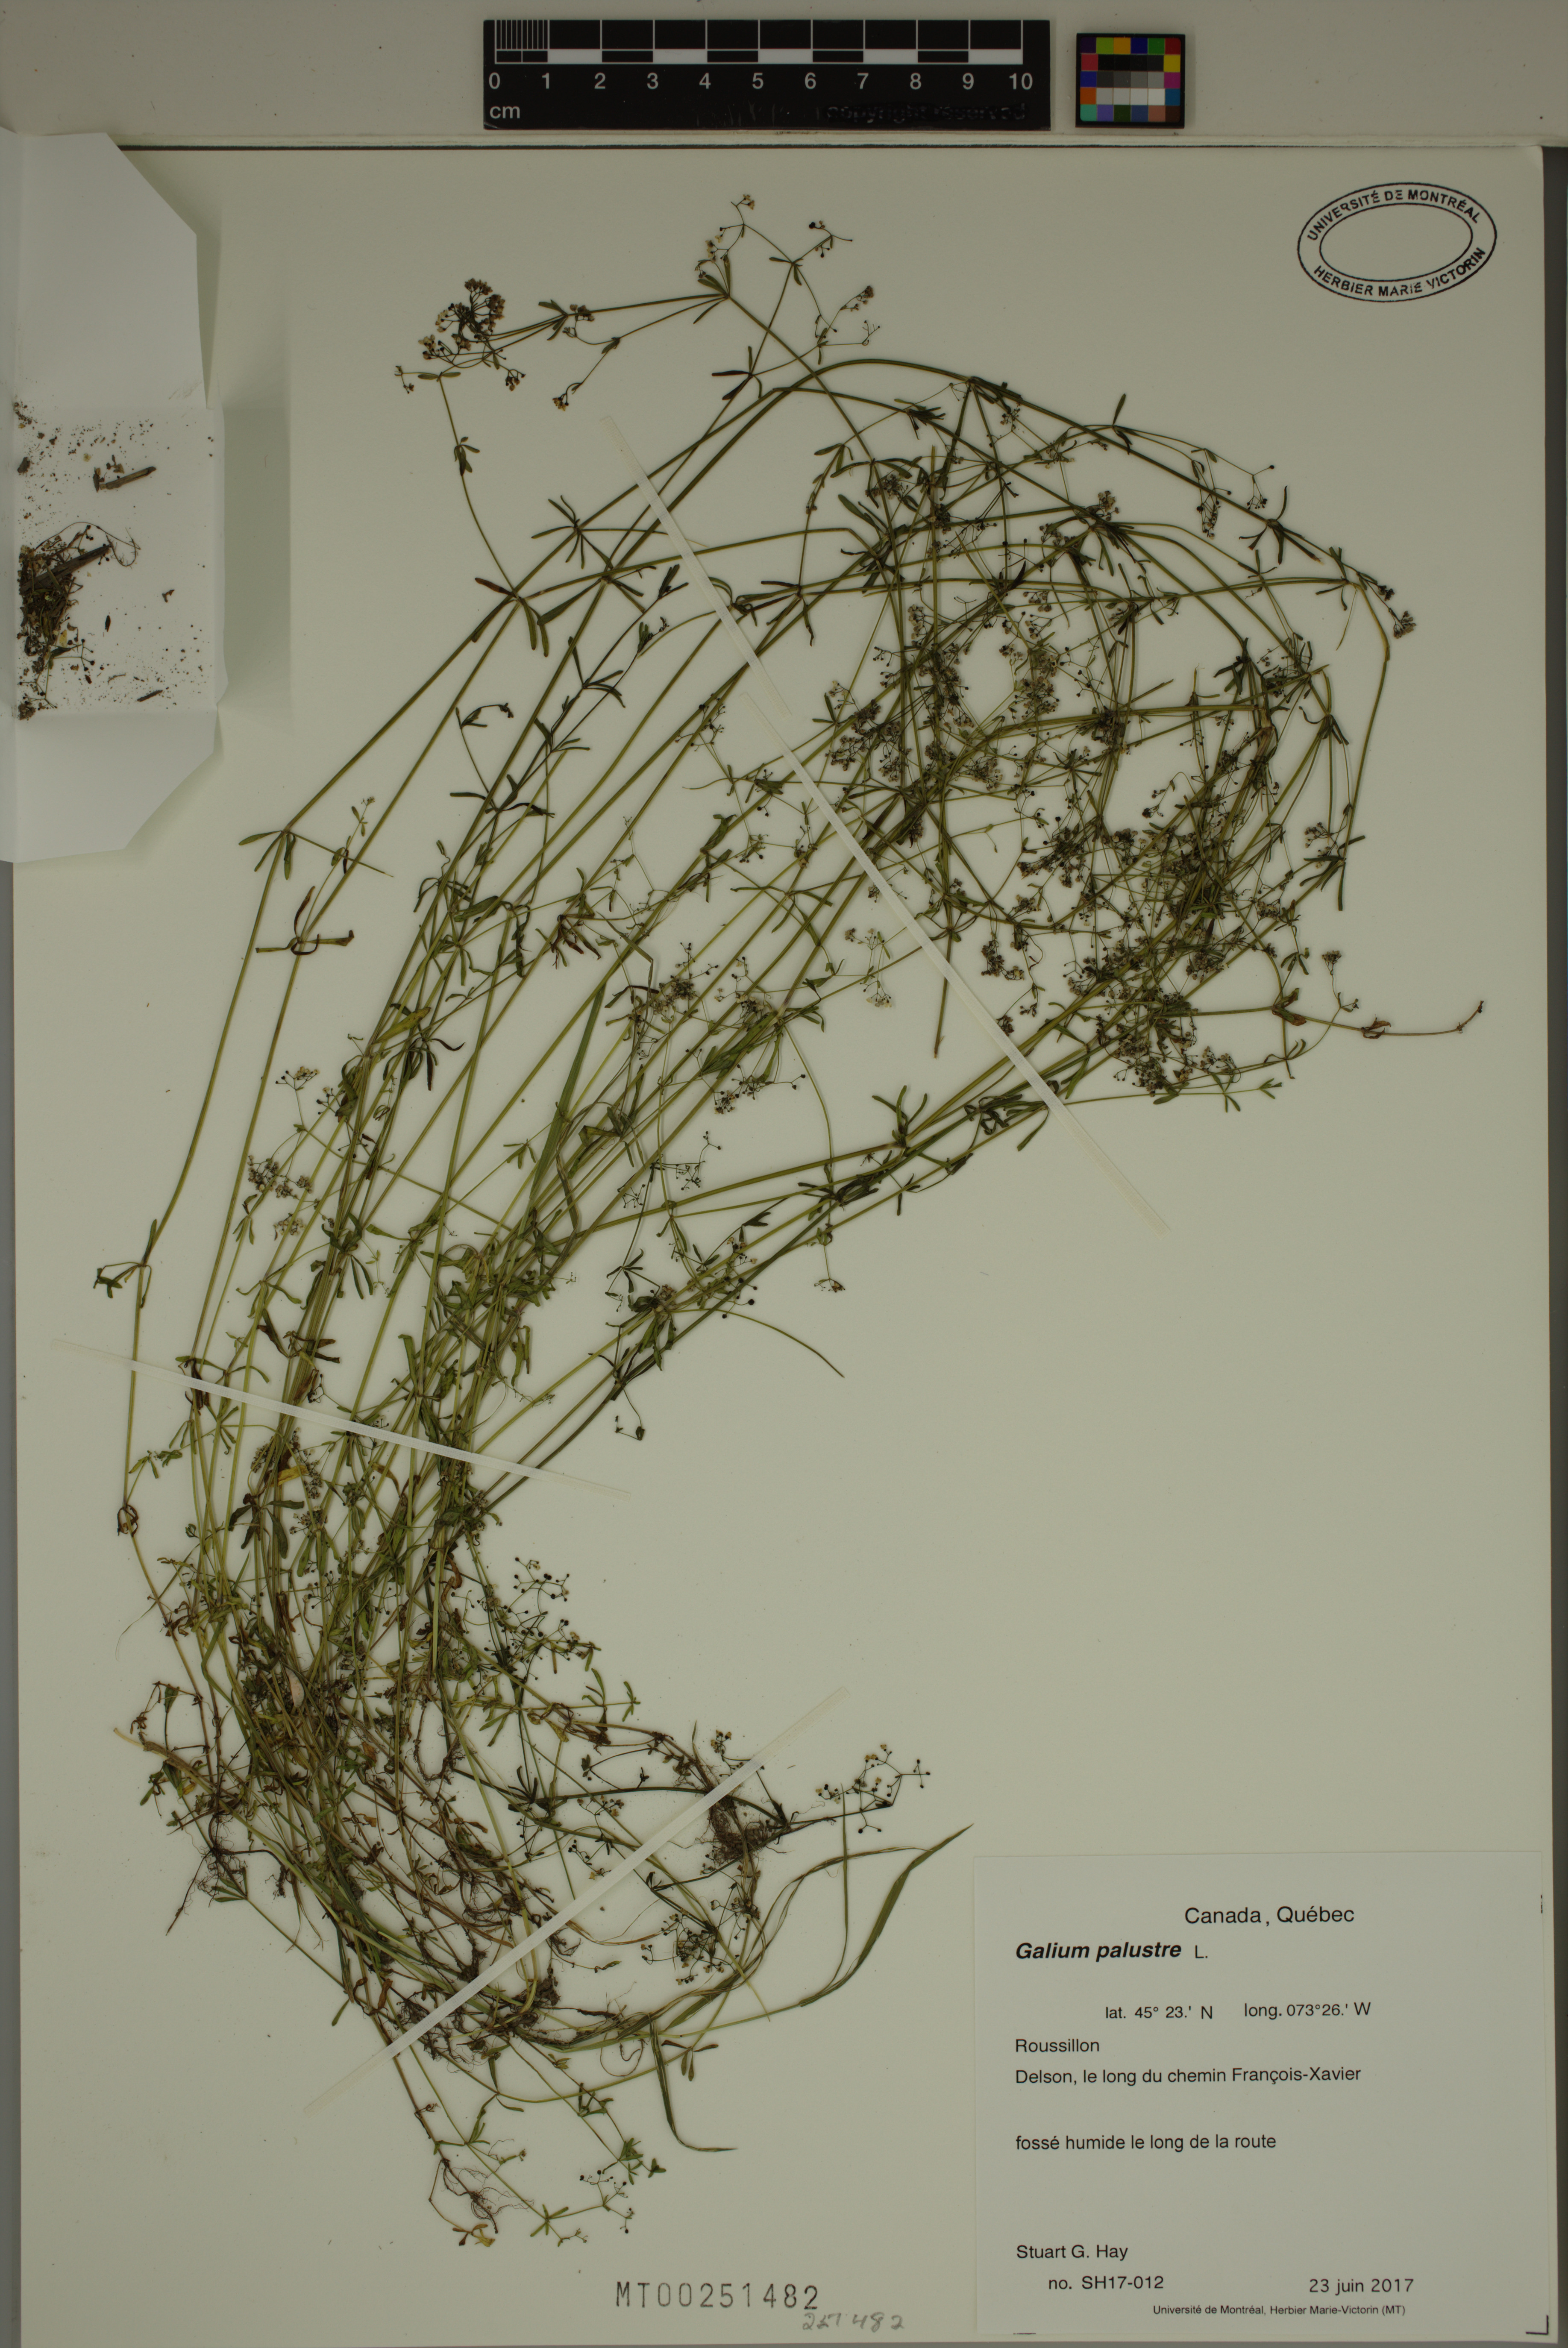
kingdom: Plantae
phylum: Tracheophyta
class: Magnoliopsida
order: Gentianales
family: Rubiaceae
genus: Galium
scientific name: Galium palustre
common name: Common marsh-bedstraw
